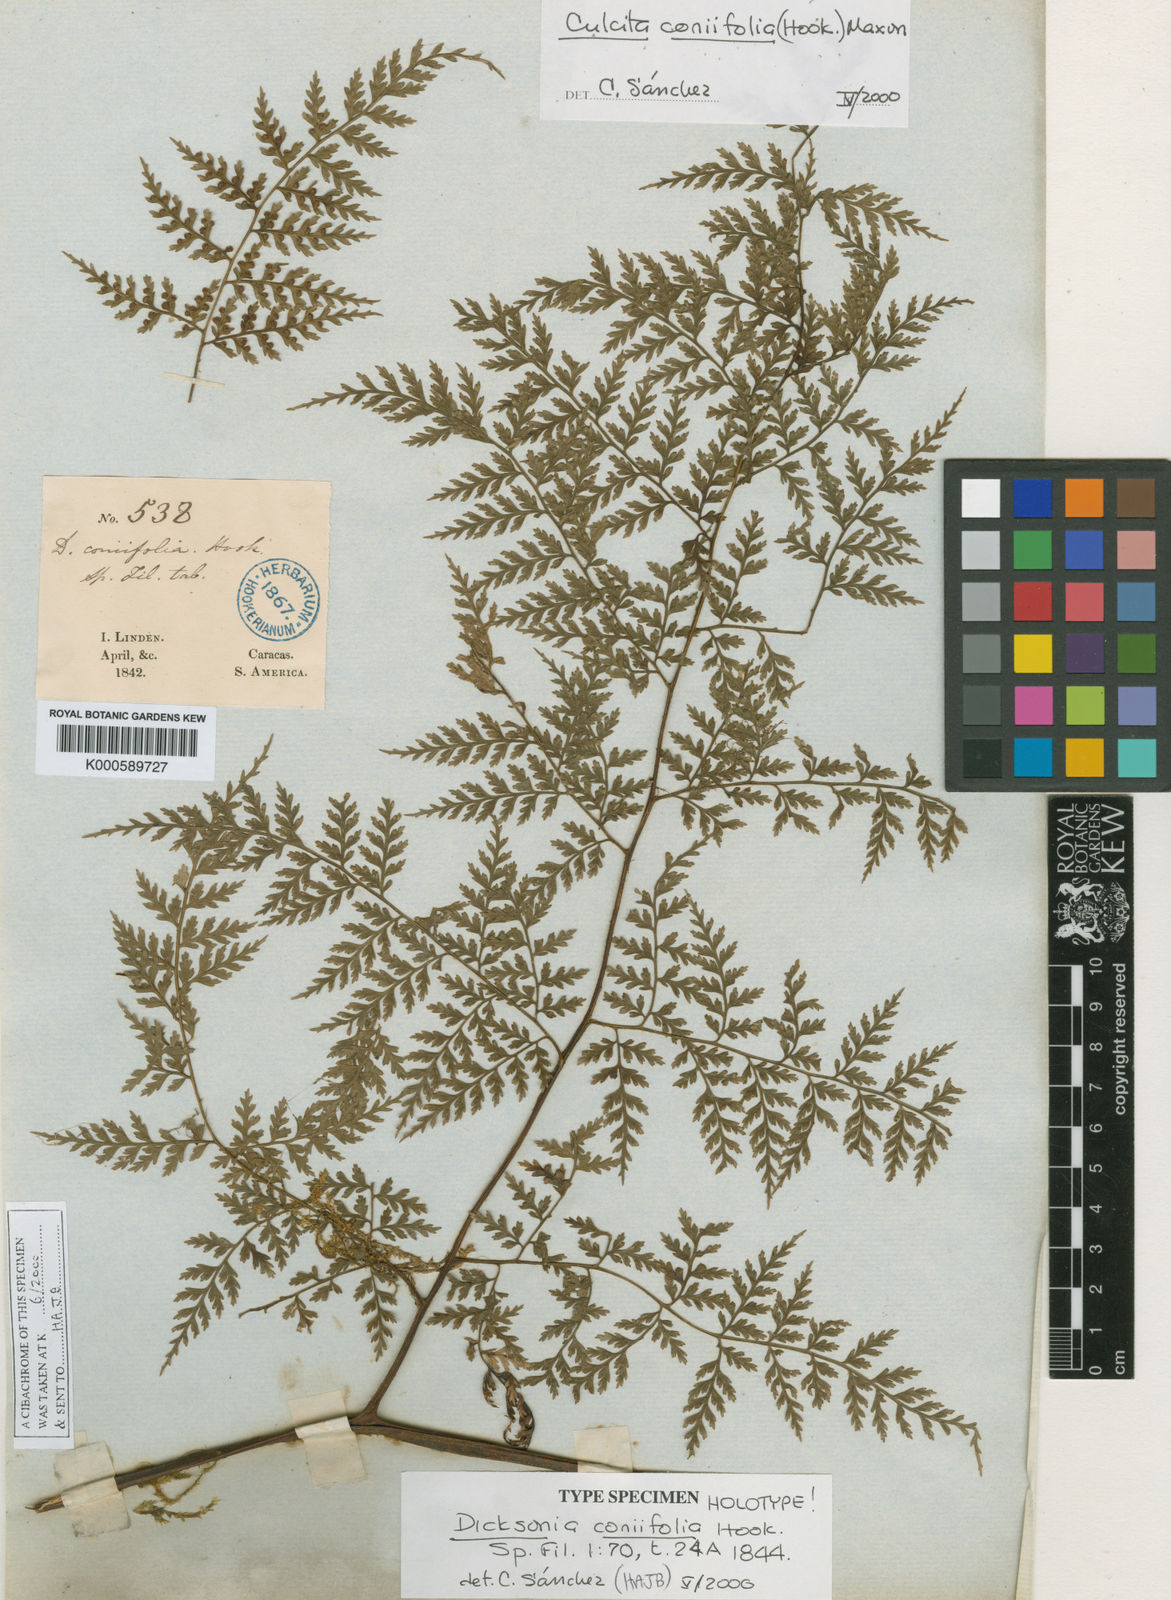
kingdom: Plantae
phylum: Tracheophyta
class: Polypodiopsida
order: Cyatheales
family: Culcitaceae
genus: Culcita
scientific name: Culcita coniifolia
